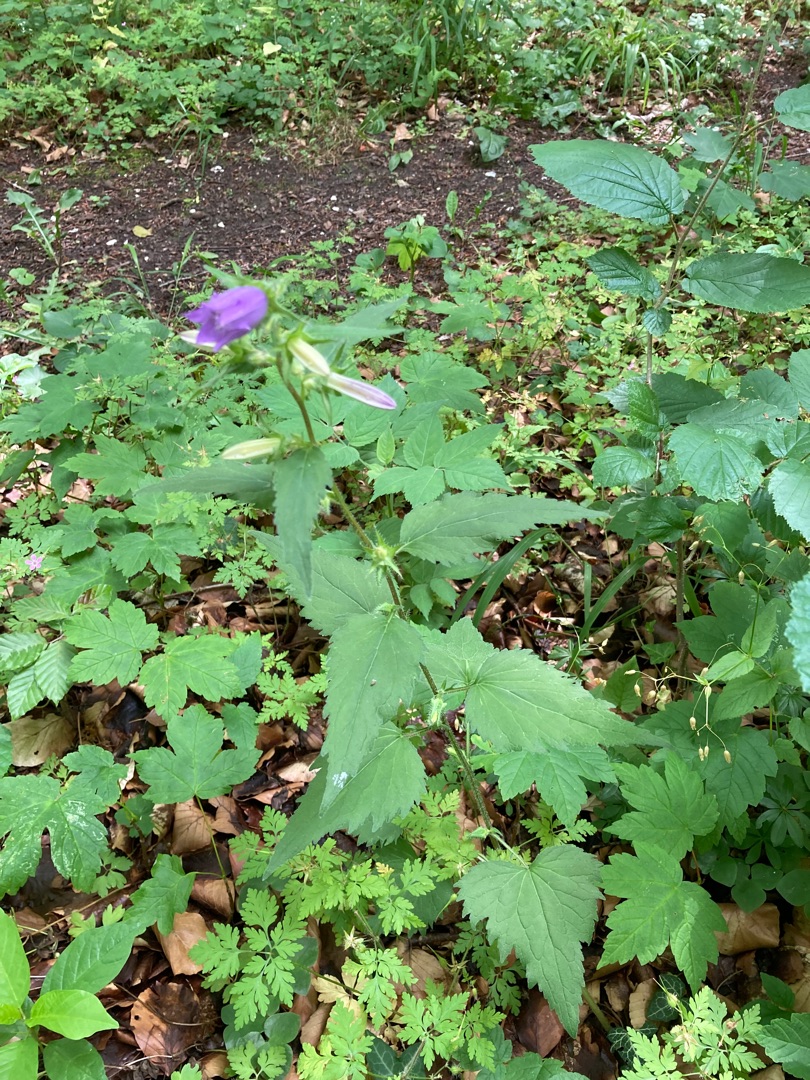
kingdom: Plantae
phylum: Tracheophyta
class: Magnoliopsida
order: Asterales
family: Campanulaceae
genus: Campanula
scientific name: Campanula trachelium
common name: Nælde-klokke
